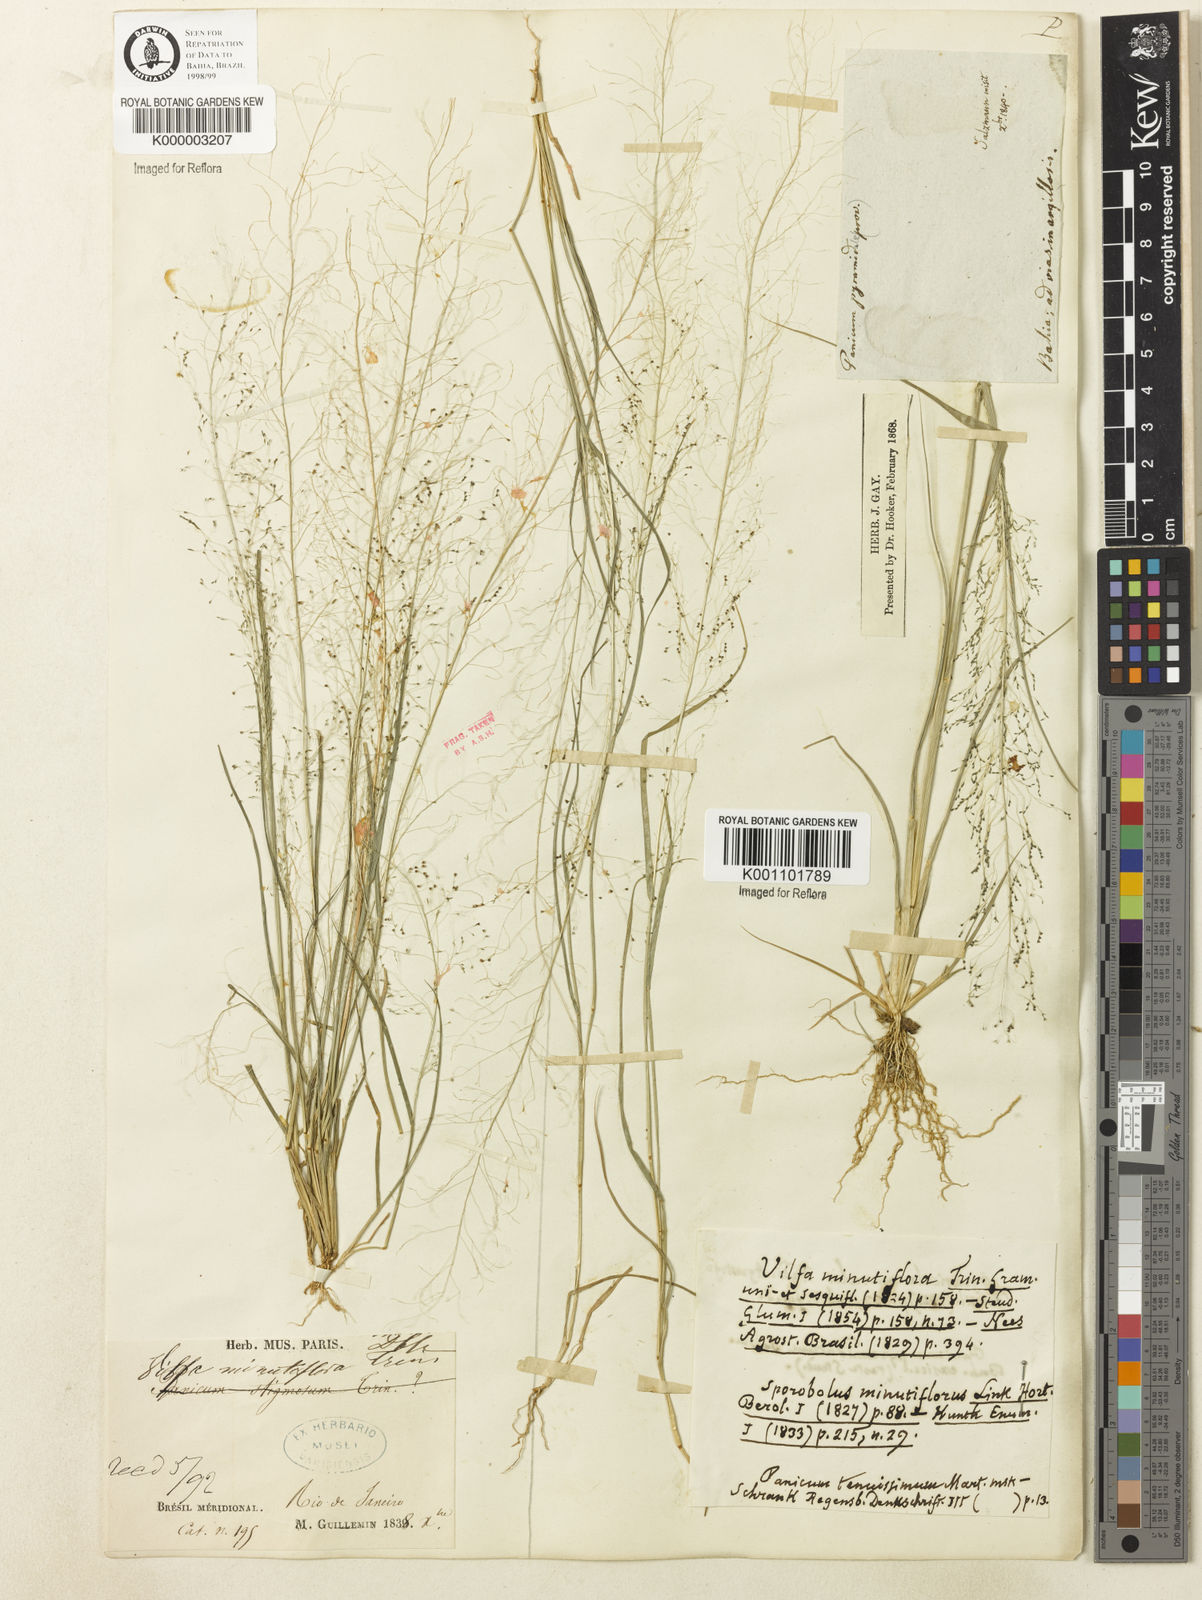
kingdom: Plantae
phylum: Tracheophyta
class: Liliopsida
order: Poales
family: Poaceae
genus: Dactyloctenium
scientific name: Dactyloctenium
